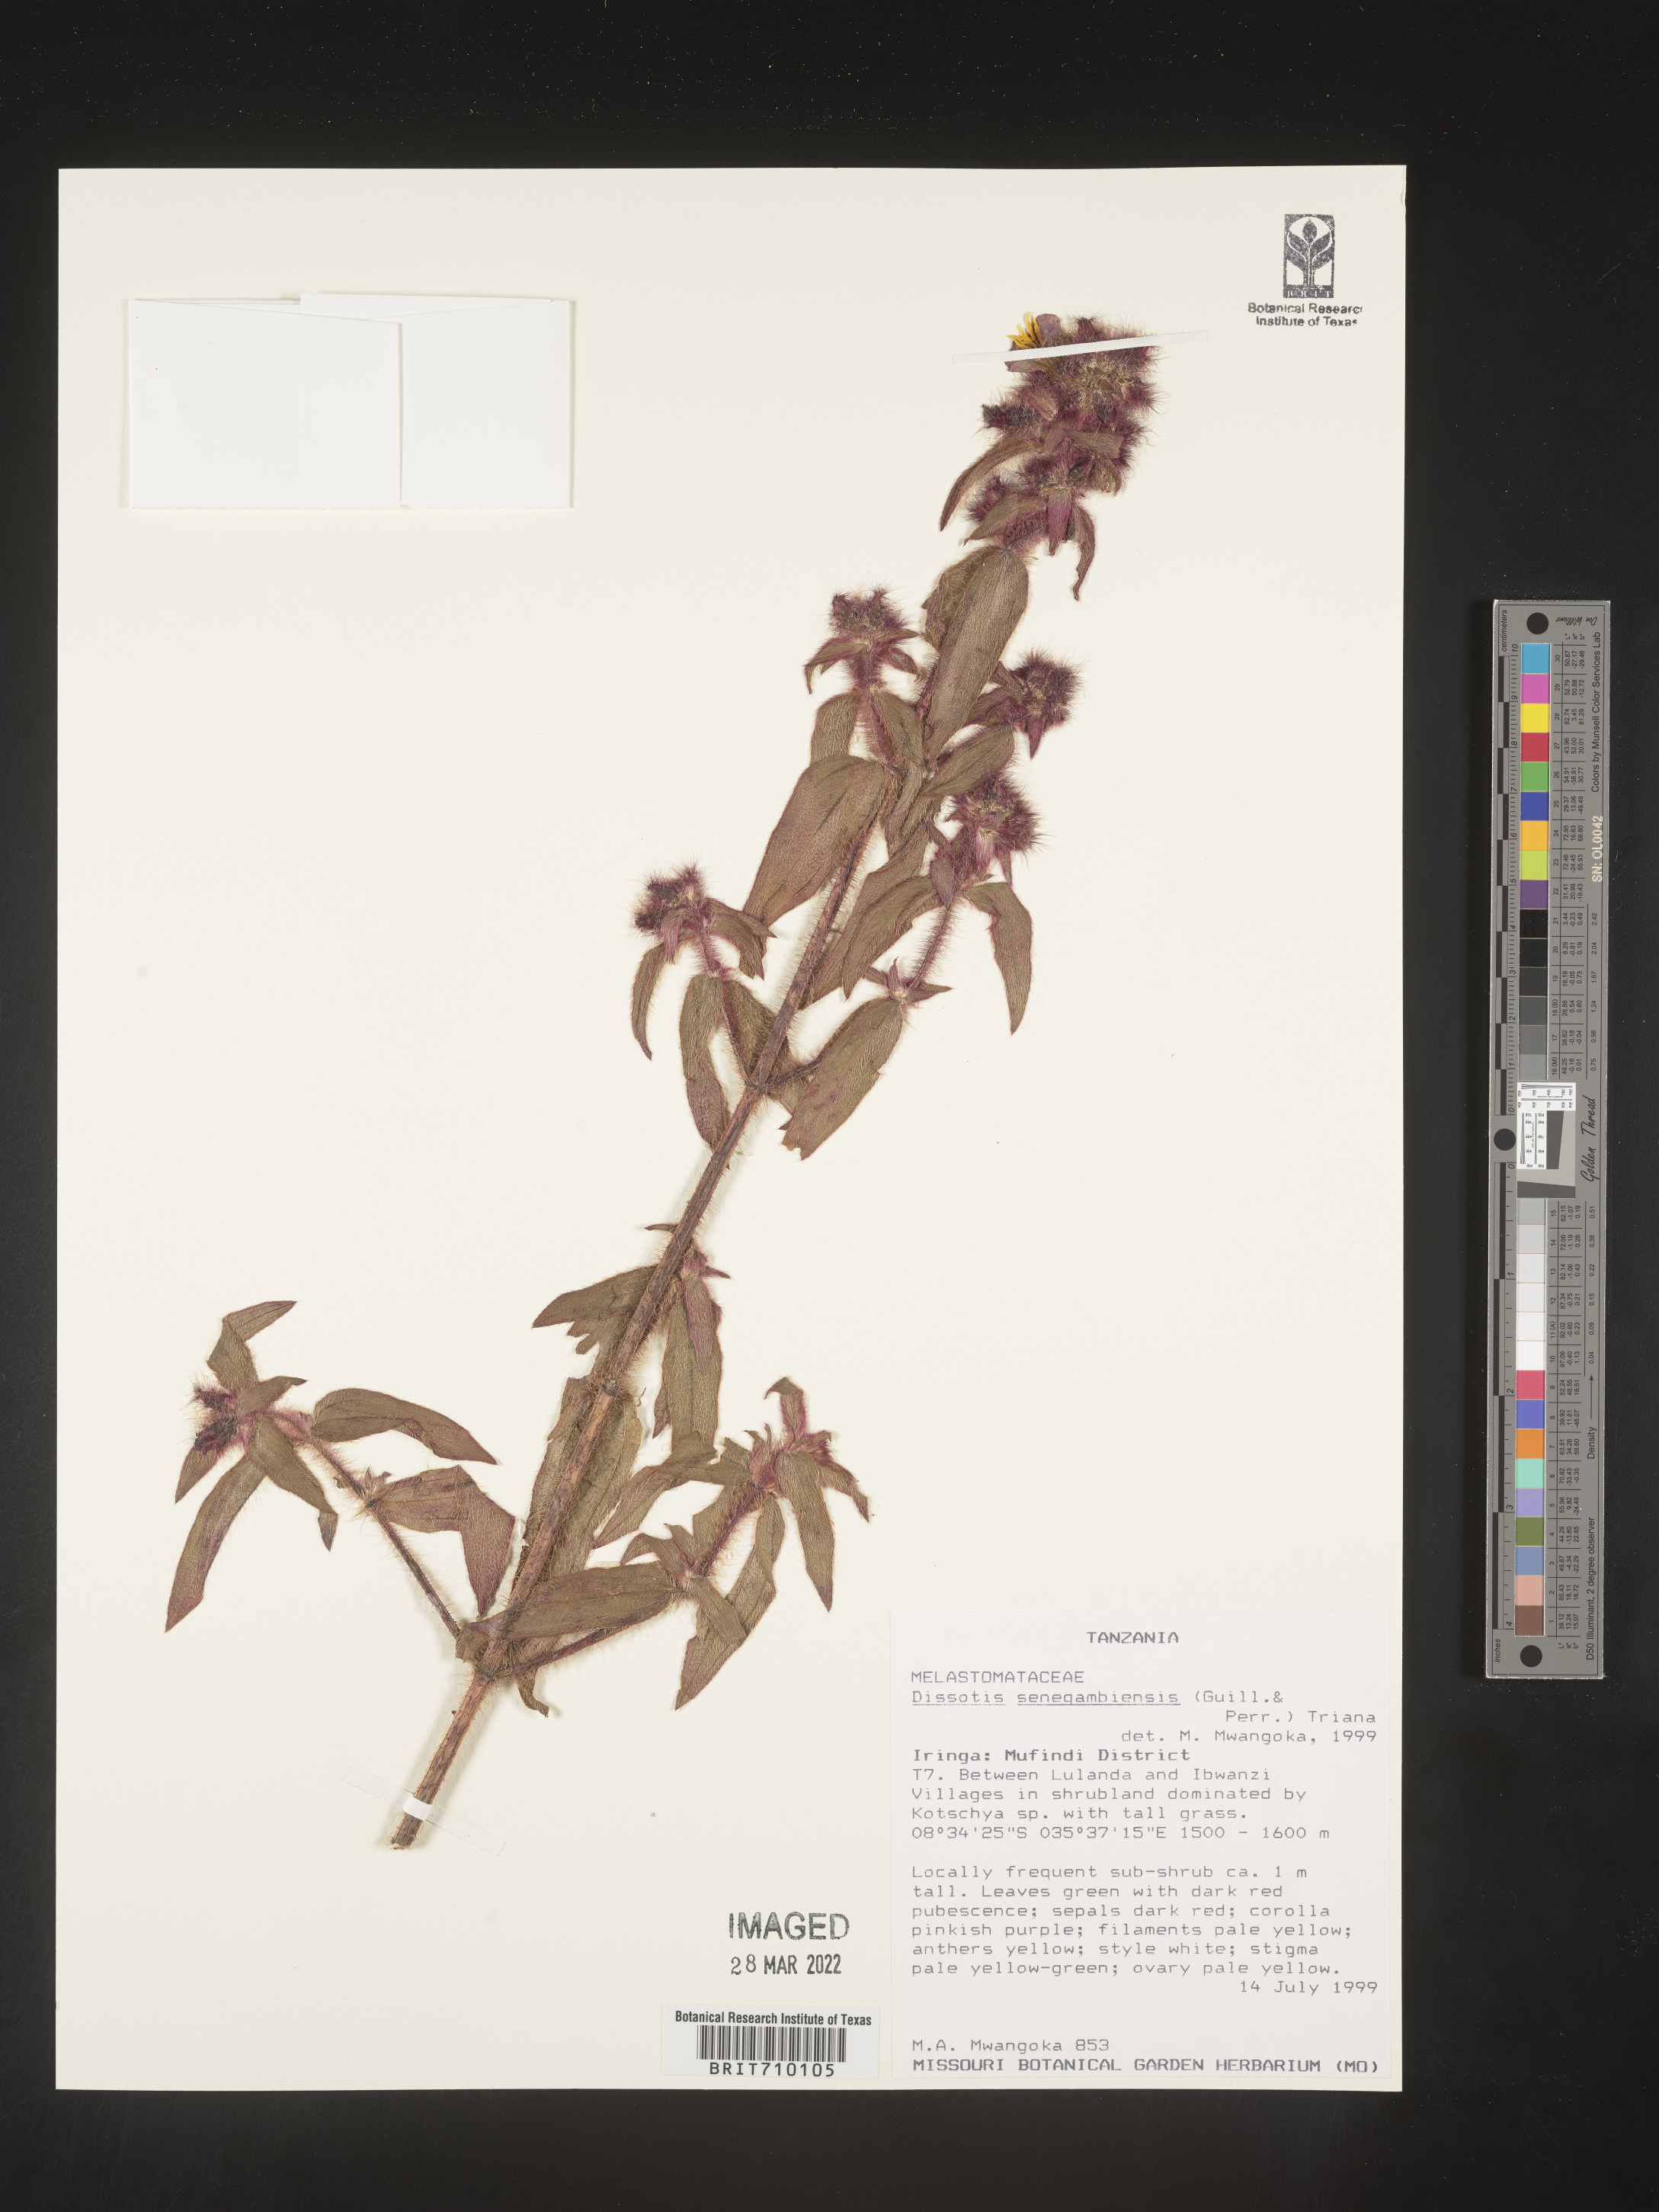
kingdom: Plantae
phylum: Tracheophyta
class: Magnoliopsida
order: Myrtales
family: Melastomataceae
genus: Dissotis
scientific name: Dissotis
